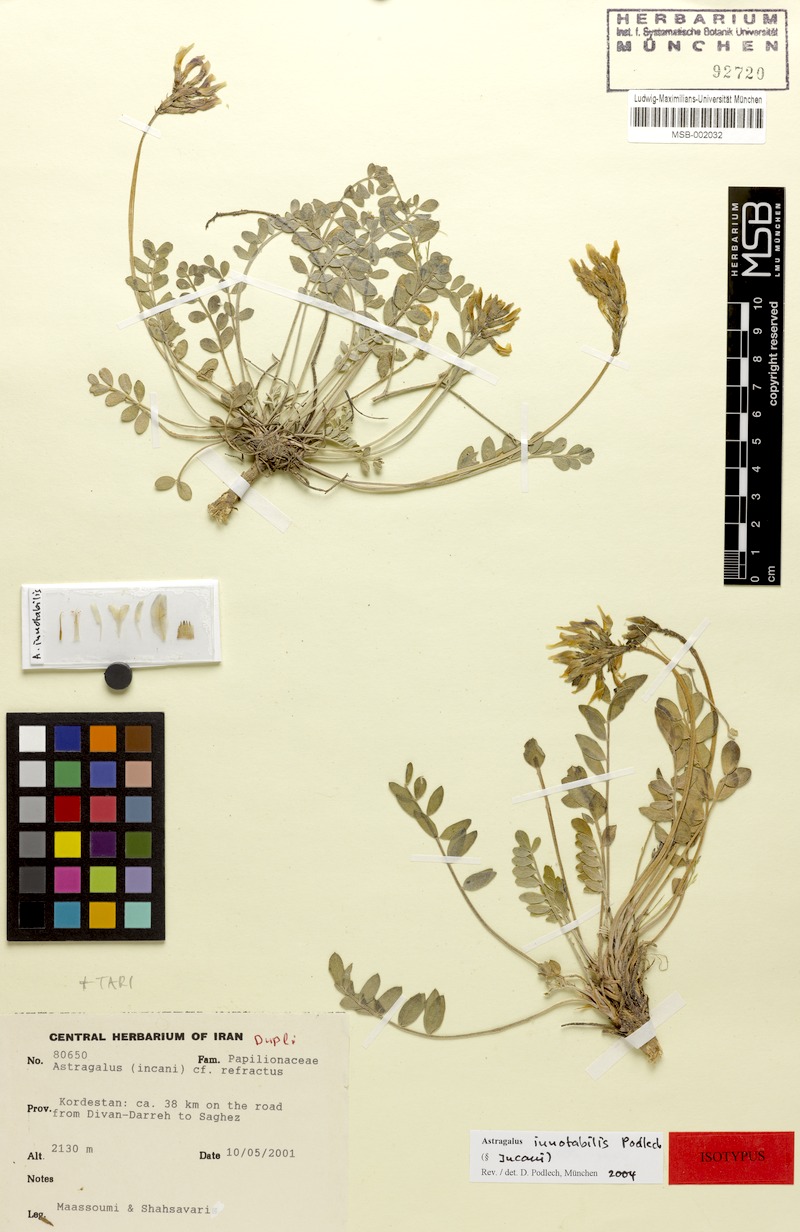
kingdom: Plantae
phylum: Tracheophyta
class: Magnoliopsida
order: Fabales
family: Fabaceae
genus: Astragalus
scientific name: Astragalus innotabilis
